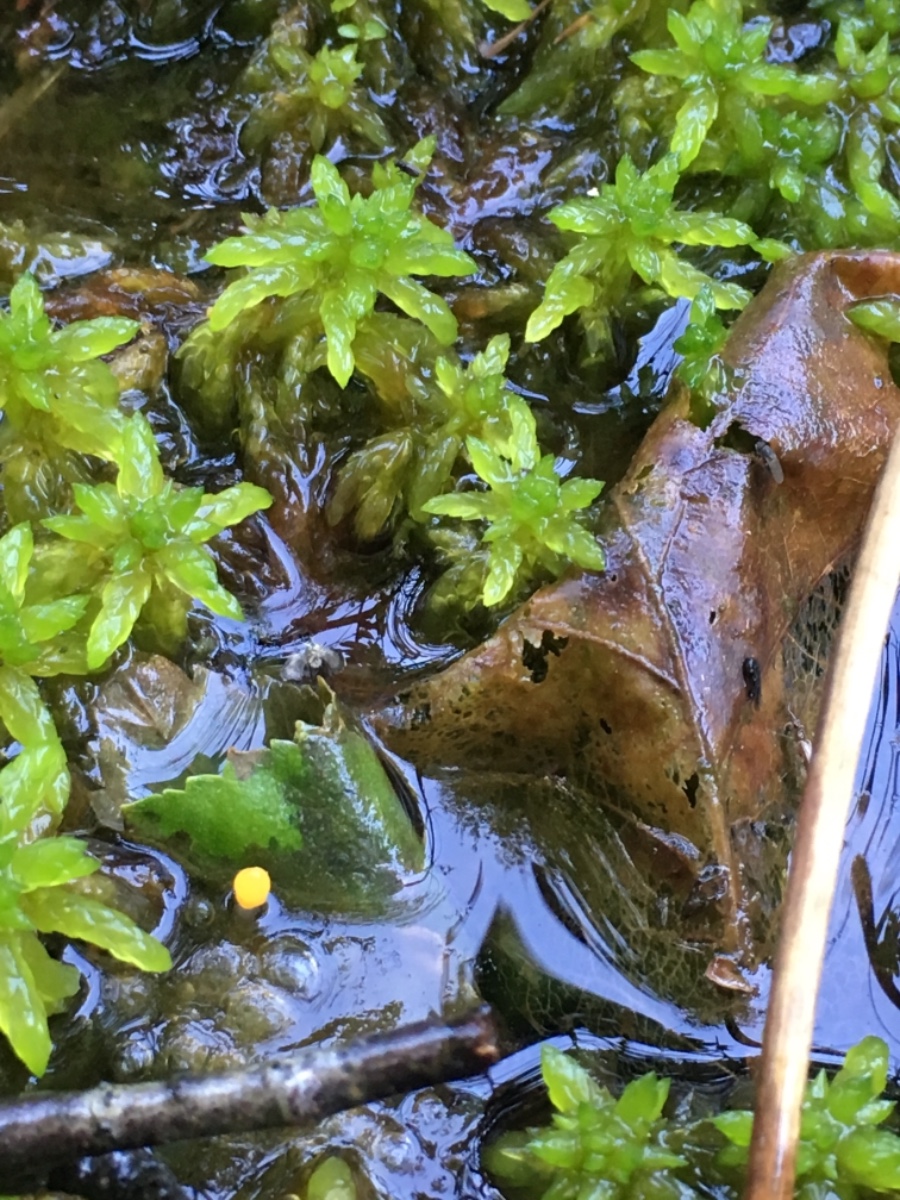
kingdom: Fungi
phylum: Ascomycota
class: Leotiomycetes
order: Helotiales
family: Cenangiaceae
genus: Mitrula
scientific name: Mitrula paludosa
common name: gul nøkketunge
